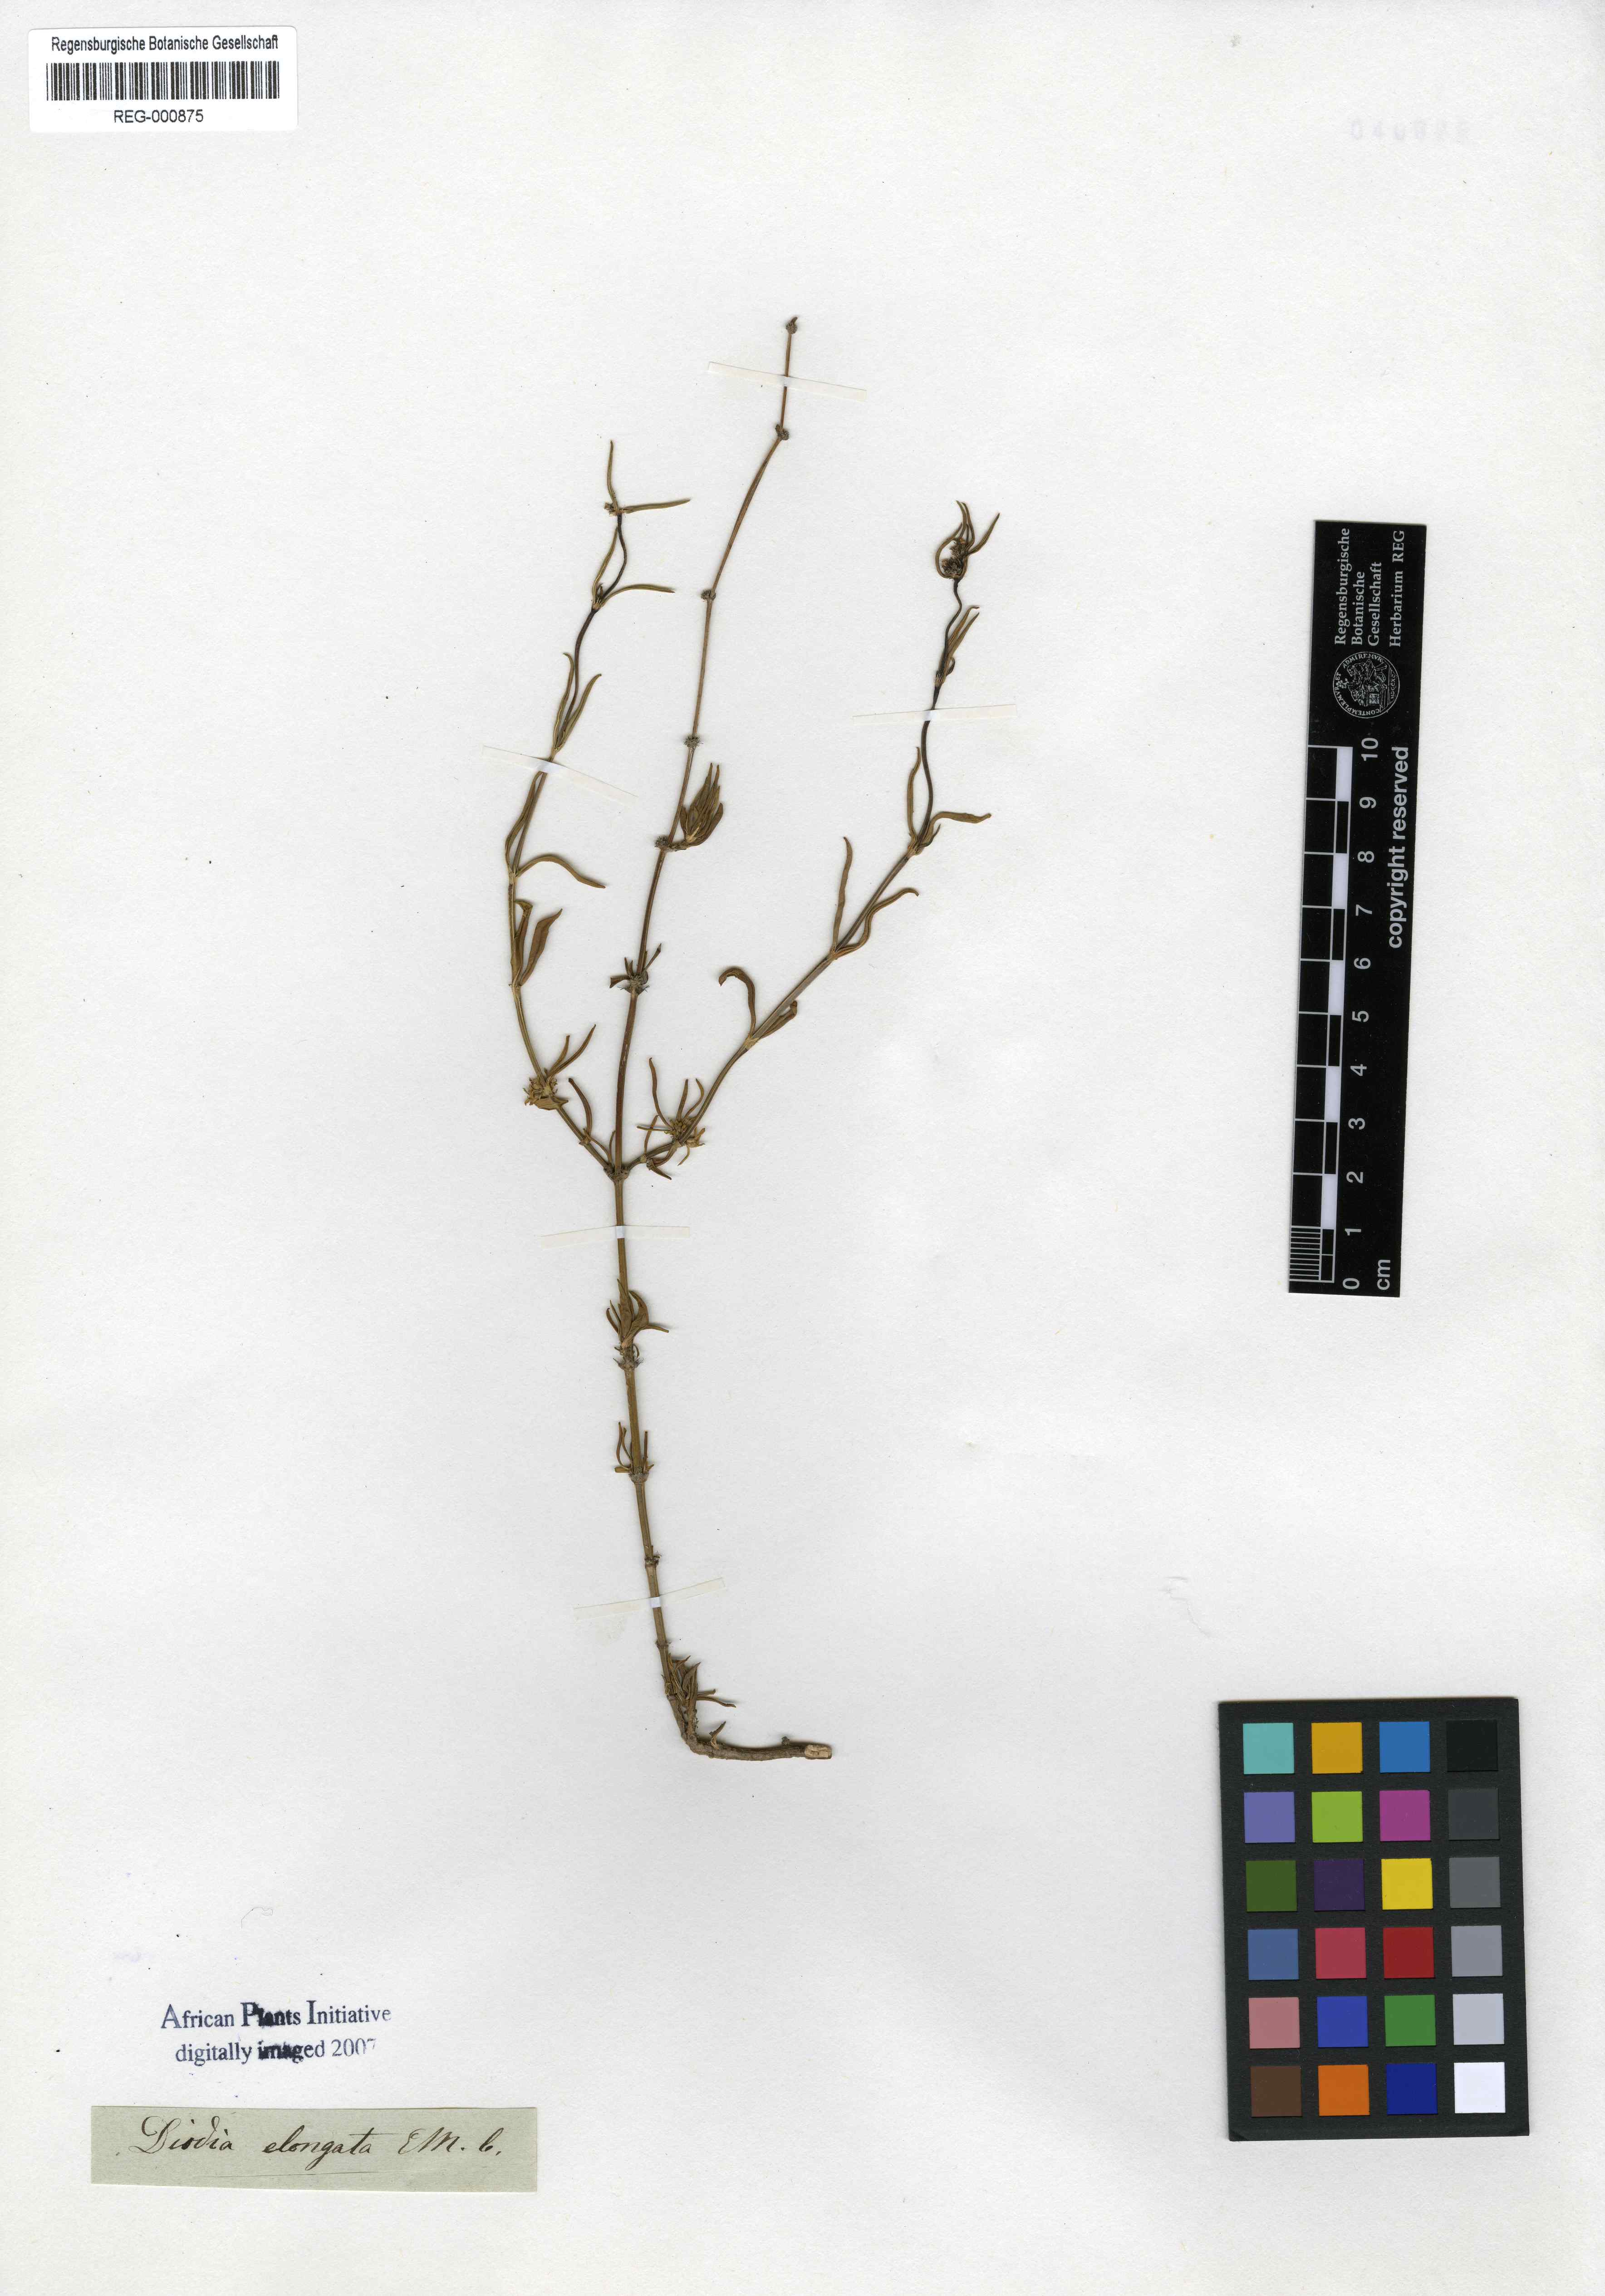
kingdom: Plantae
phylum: Tracheophyta
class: Magnoliopsida
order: Gentianales
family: Rubiaceae
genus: Spermacoce
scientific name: Spermacoce natalensis
